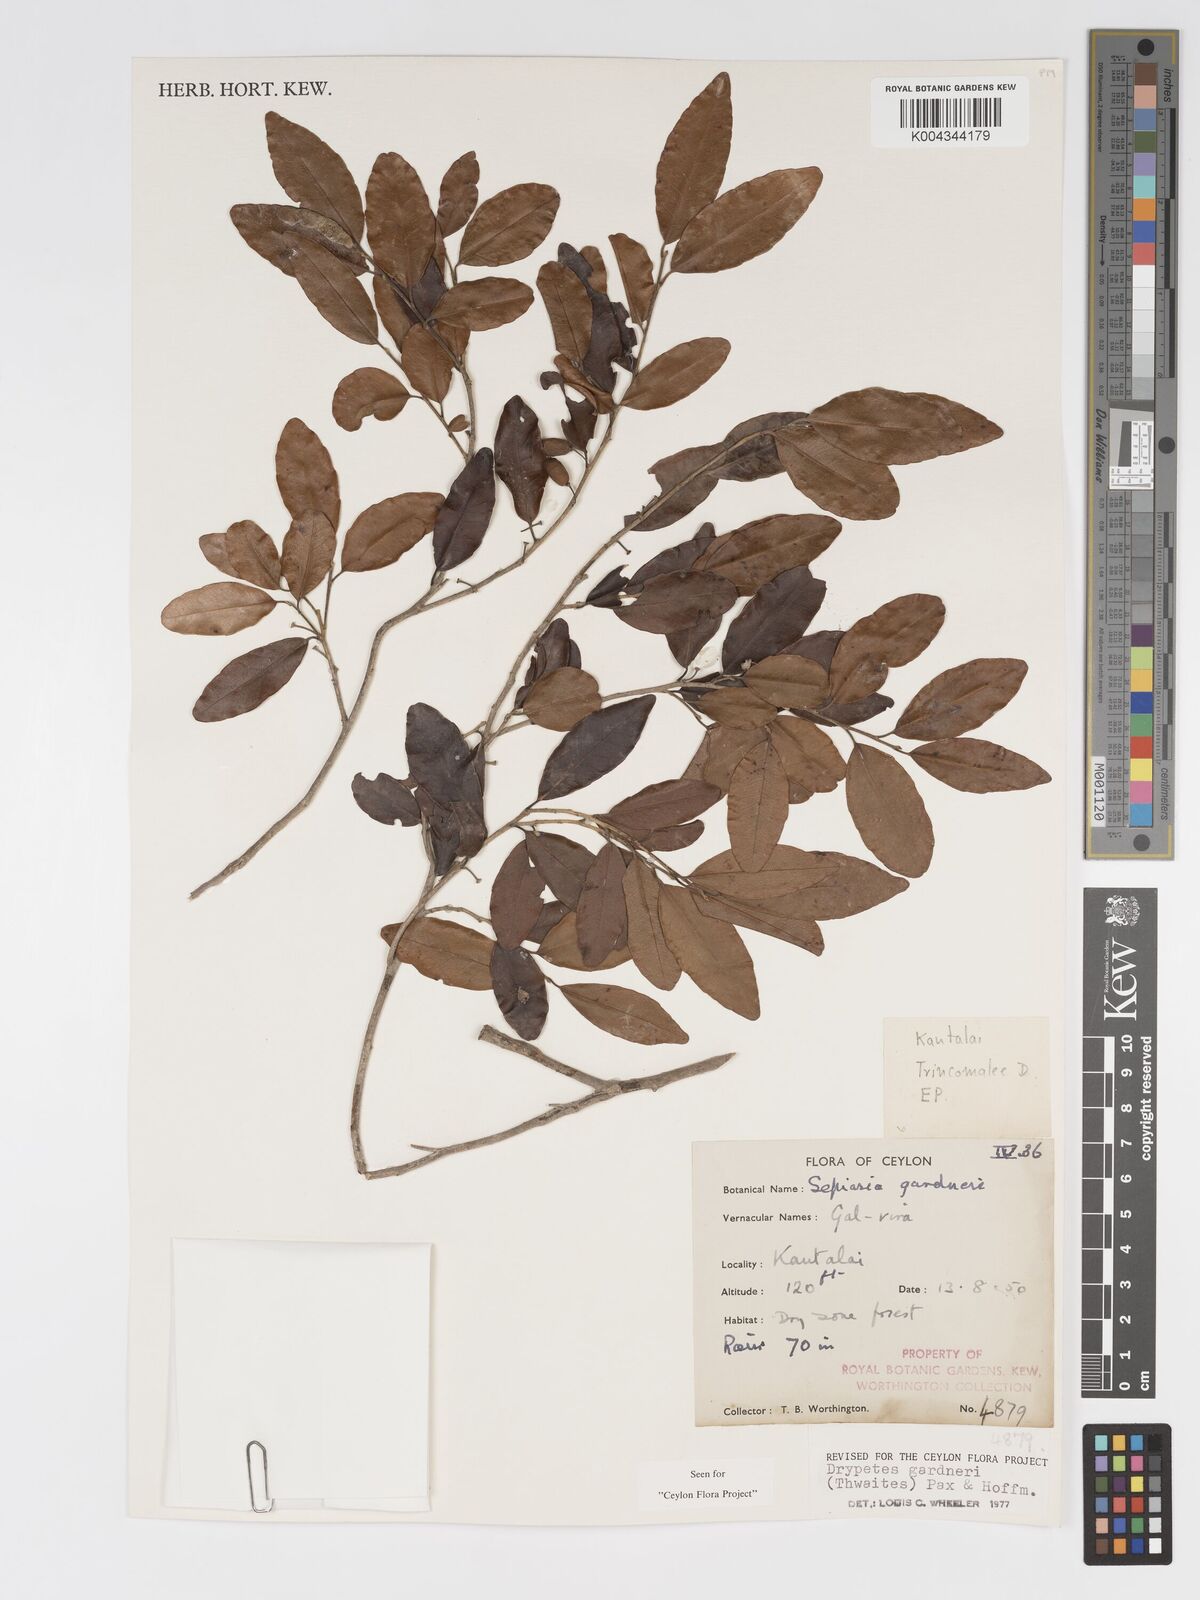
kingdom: Plantae
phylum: Tracheophyta
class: Magnoliopsida
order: Malpighiales
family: Putranjivaceae
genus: Drypetes
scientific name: Drypetes gardneri
